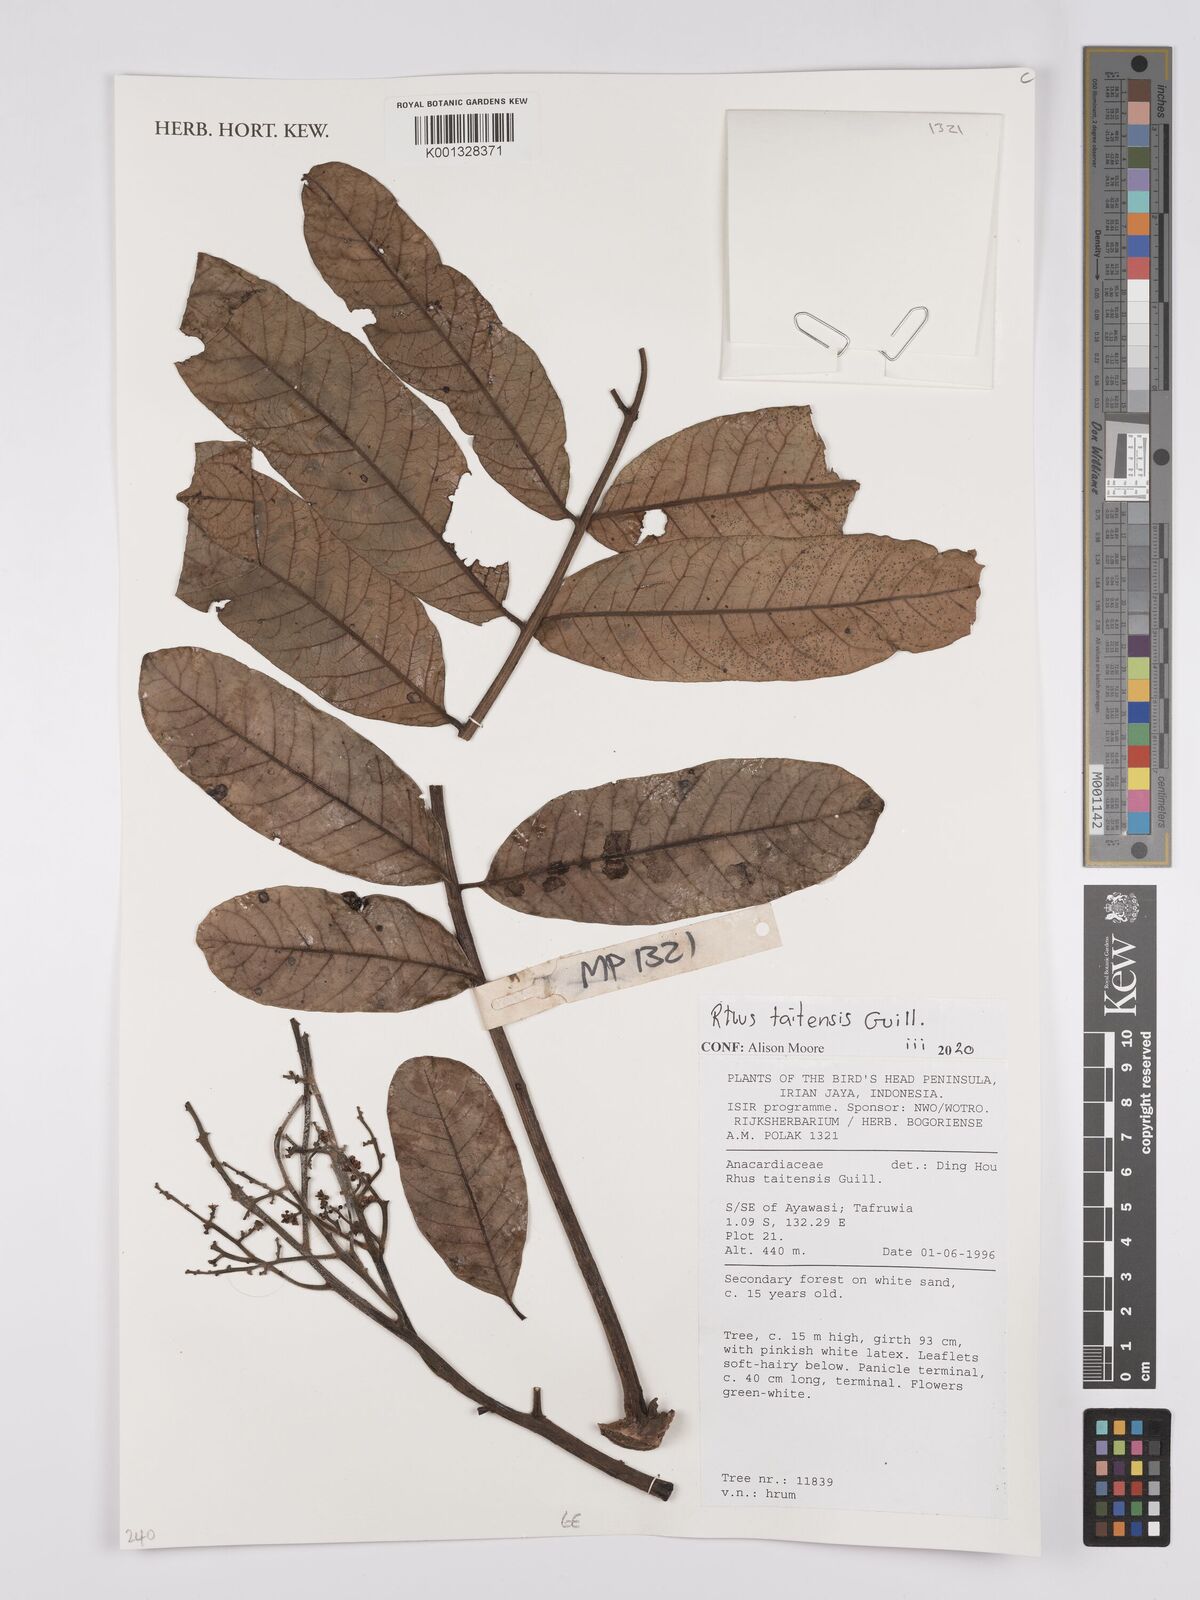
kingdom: Plantae
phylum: Tracheophyta
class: Magnoliopsida
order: Sapindales
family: Anacardiaceae
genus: Melanococca
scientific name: Melanococca tomentosa
